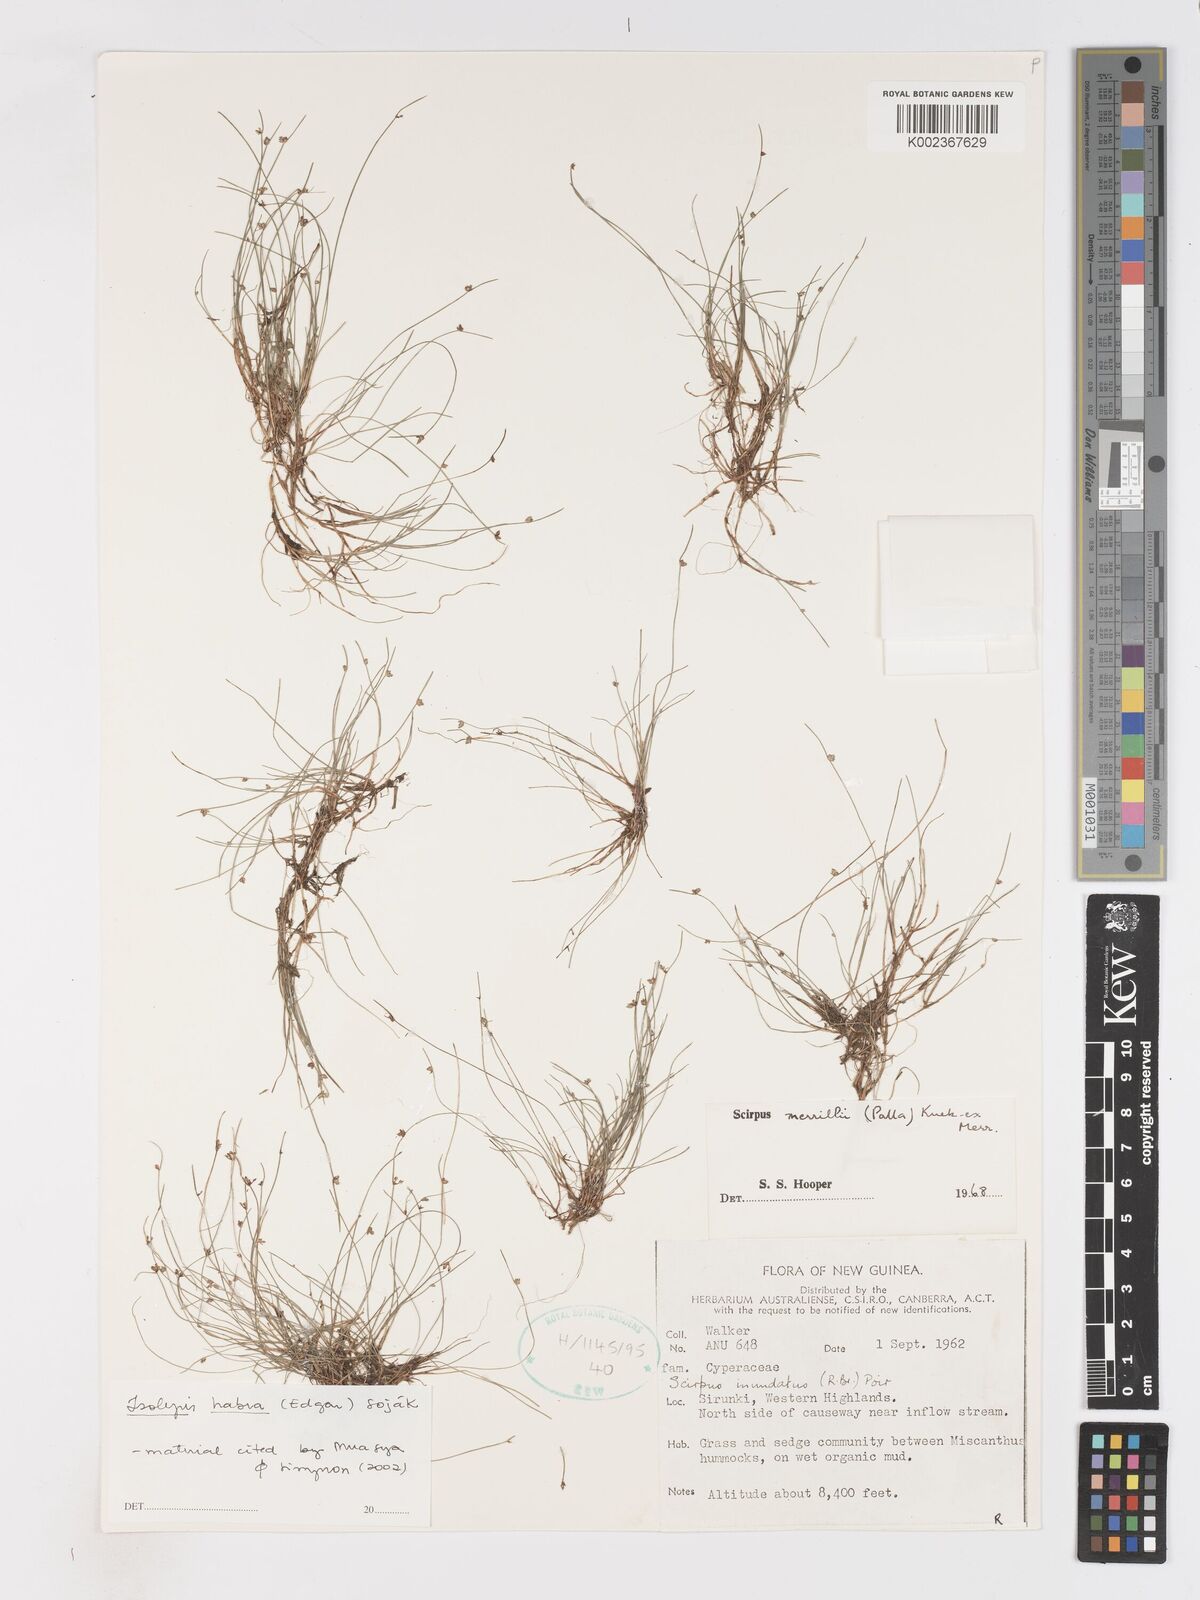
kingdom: Plantae
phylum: Tracheophyta
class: Liliopsida
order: Poales
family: Cyperaceae
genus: Isolepis
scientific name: Isolepis habra
